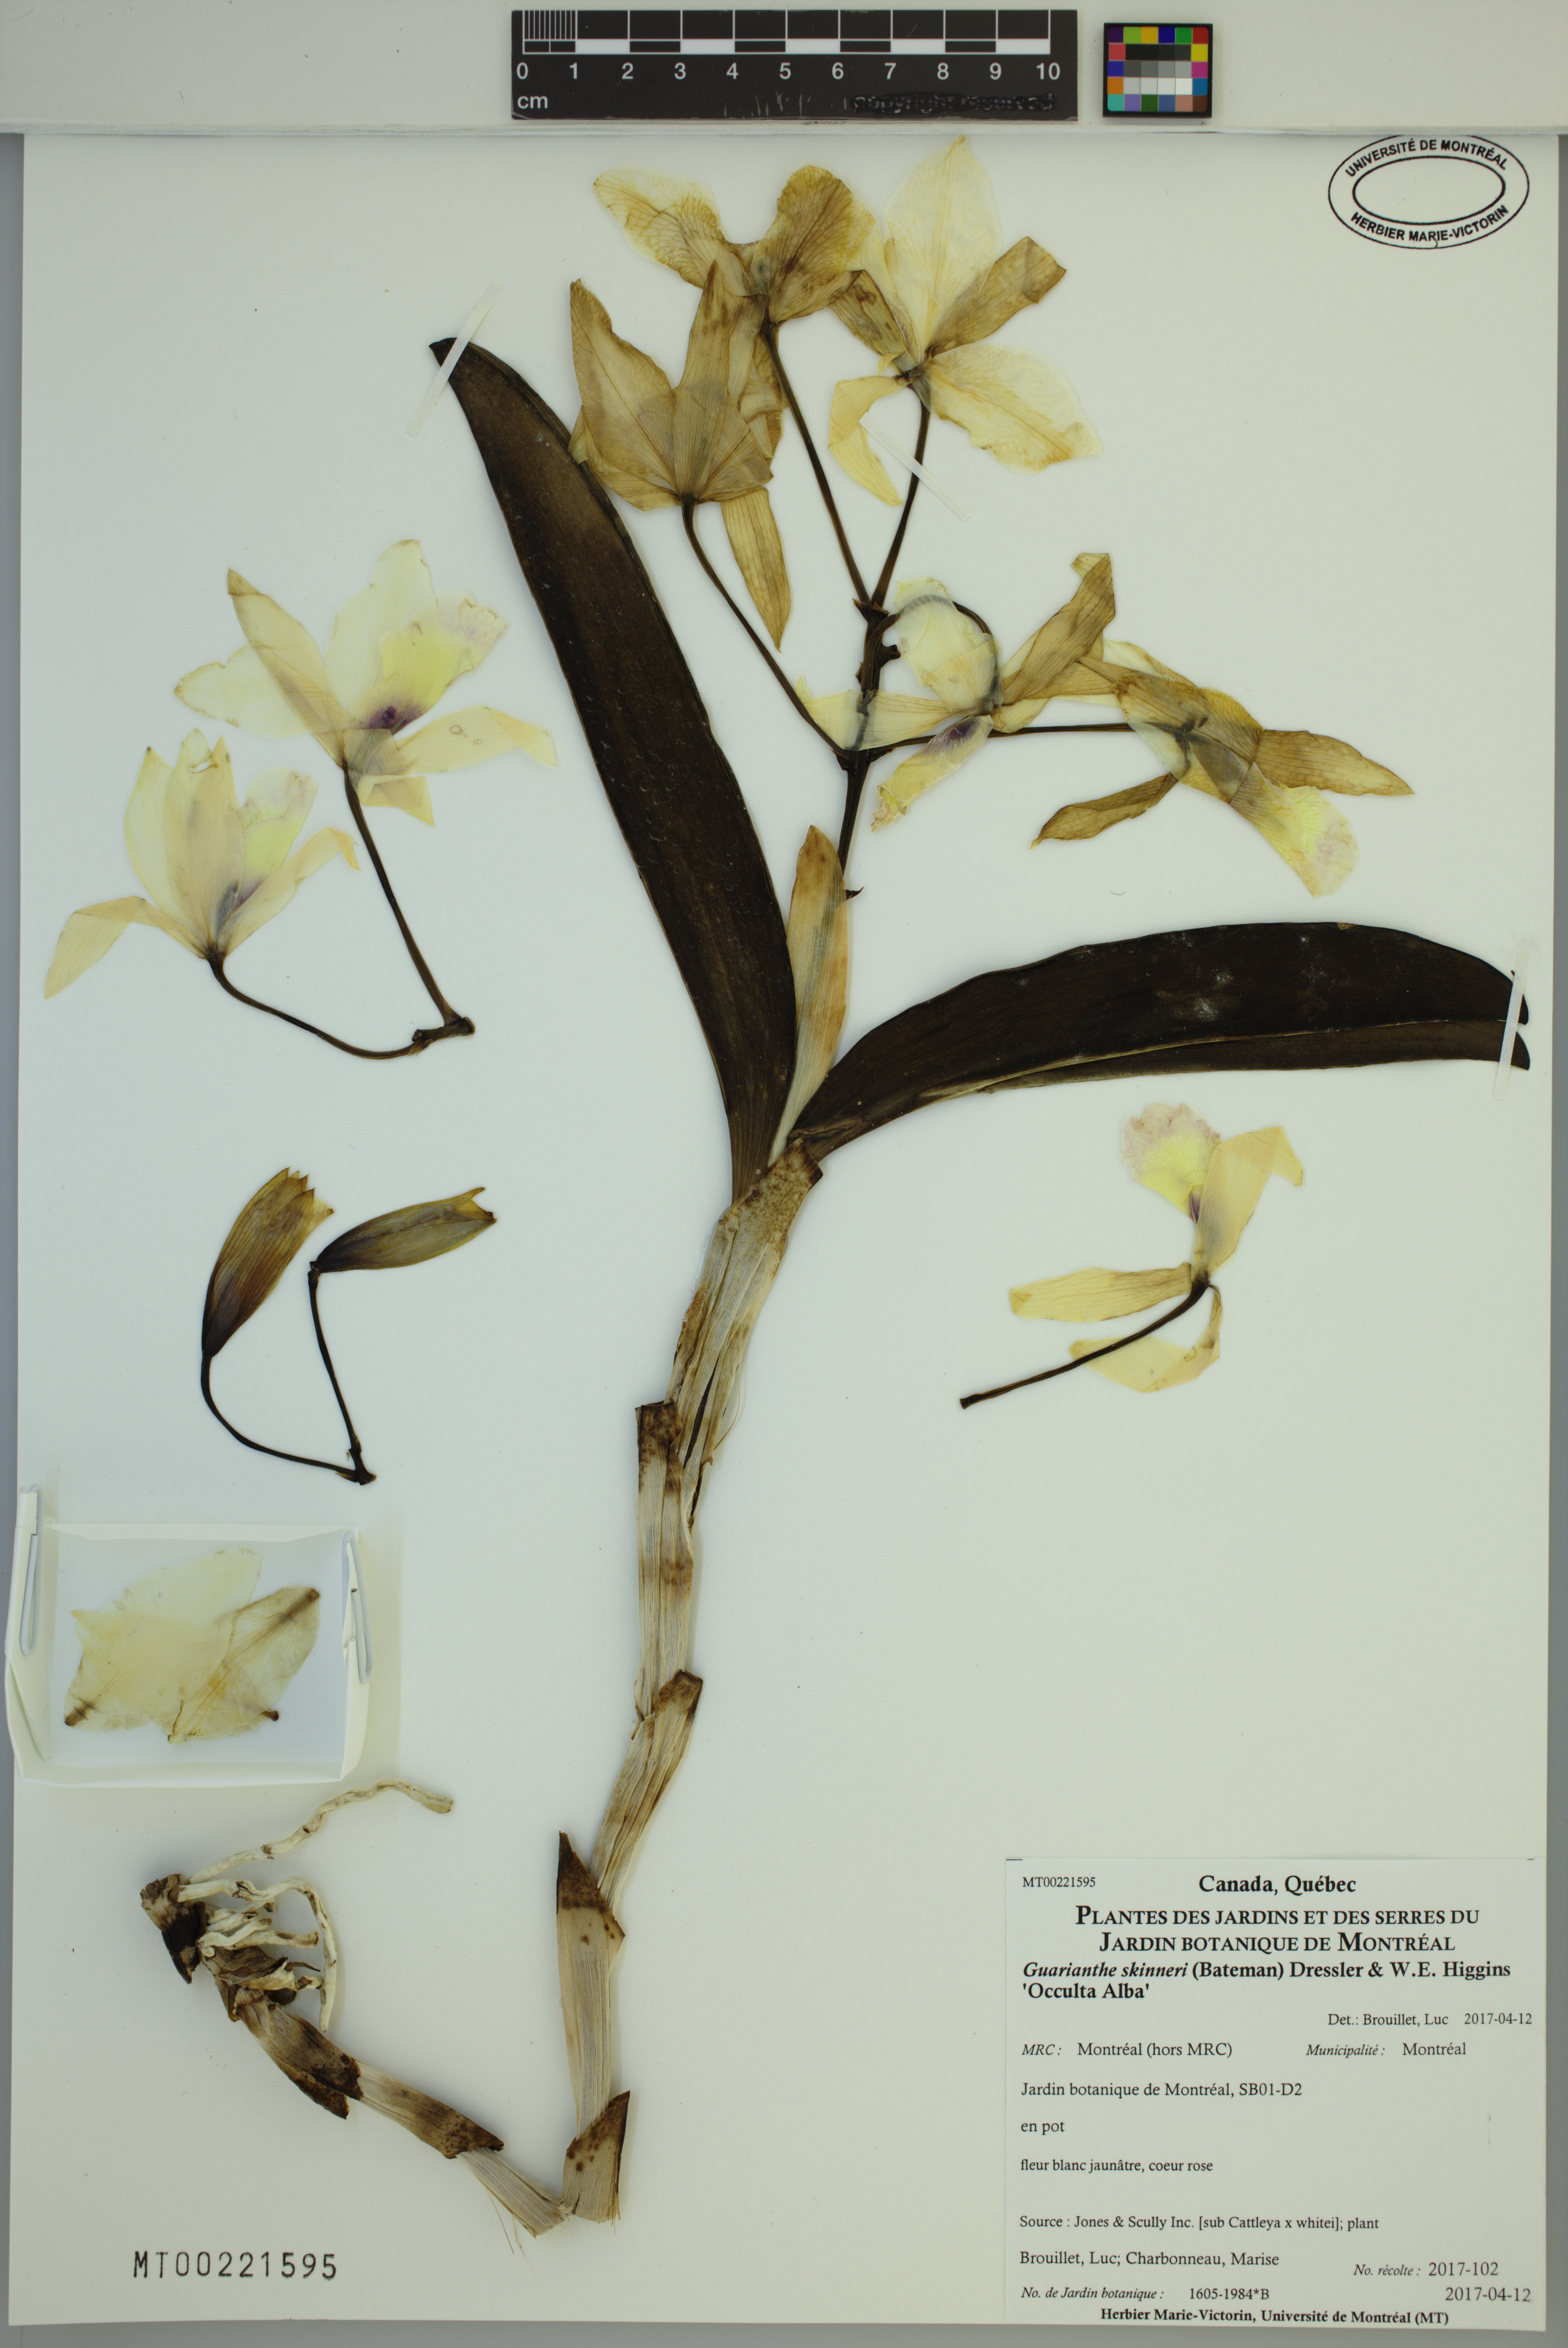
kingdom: Plantae
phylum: Tracheophyta
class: Liliopsida
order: Asparagales
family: Orchidaceae
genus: Guarianthe
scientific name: Guarianthe skinneri
